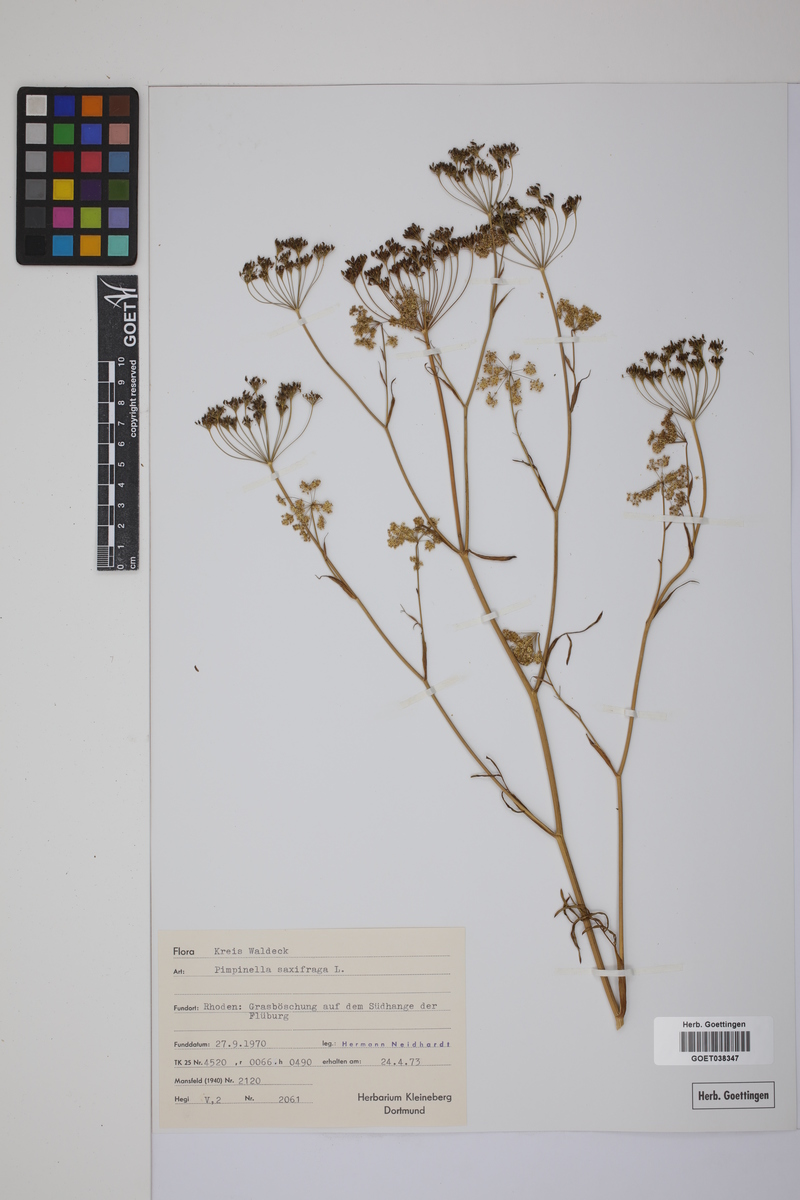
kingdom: Plantae
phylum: Tracheophyta
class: Magnoliopsida
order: Apiales
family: Apiaceae
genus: Pimpinella
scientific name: Pimpinella saxifraga
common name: Burnet-saxifrage
